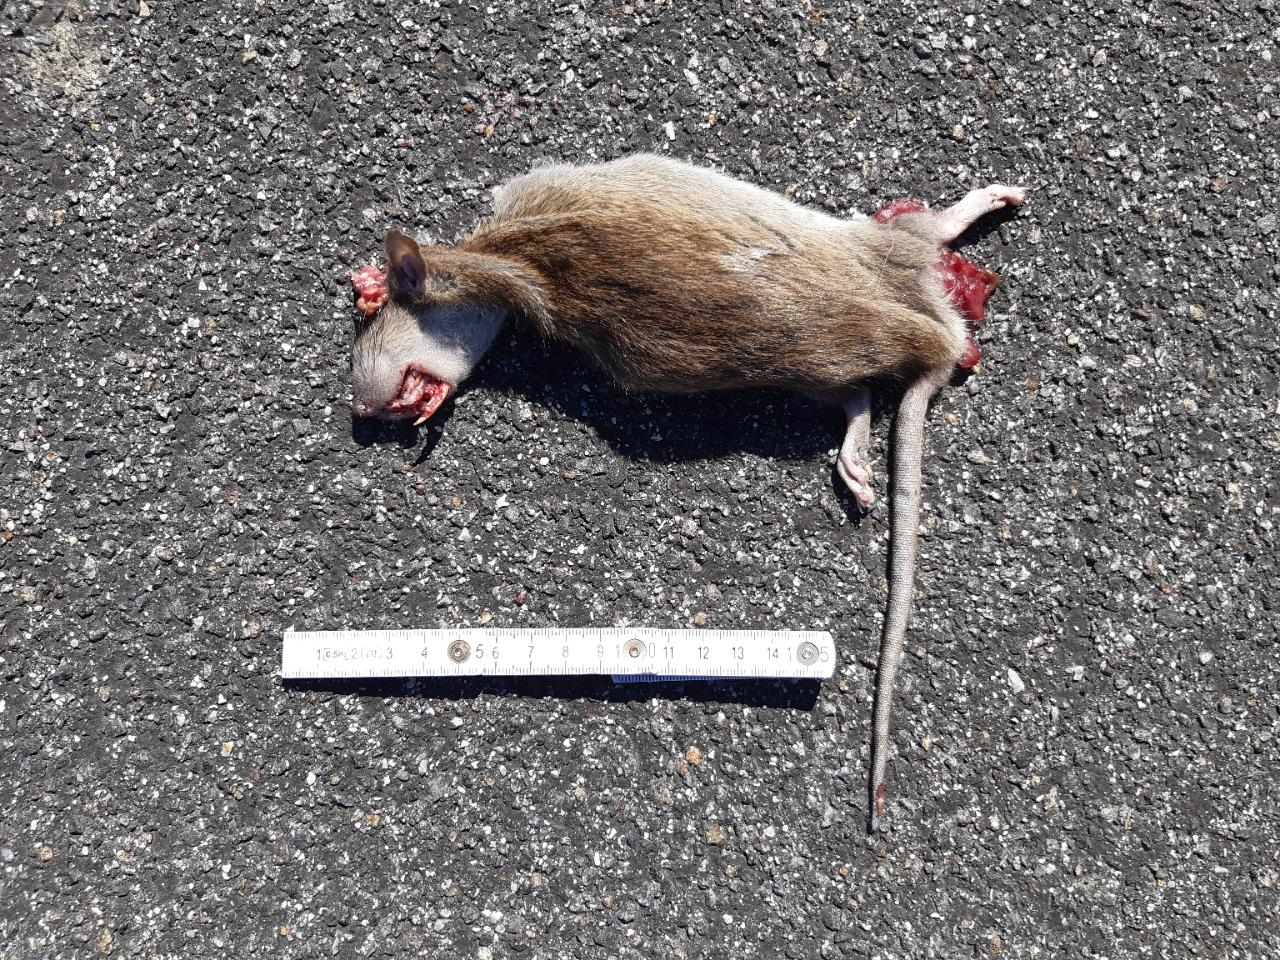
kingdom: Animalia
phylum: Chordata
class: Mammalia
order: Rodentia
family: Muridae
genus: Rattus
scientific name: Rattus
